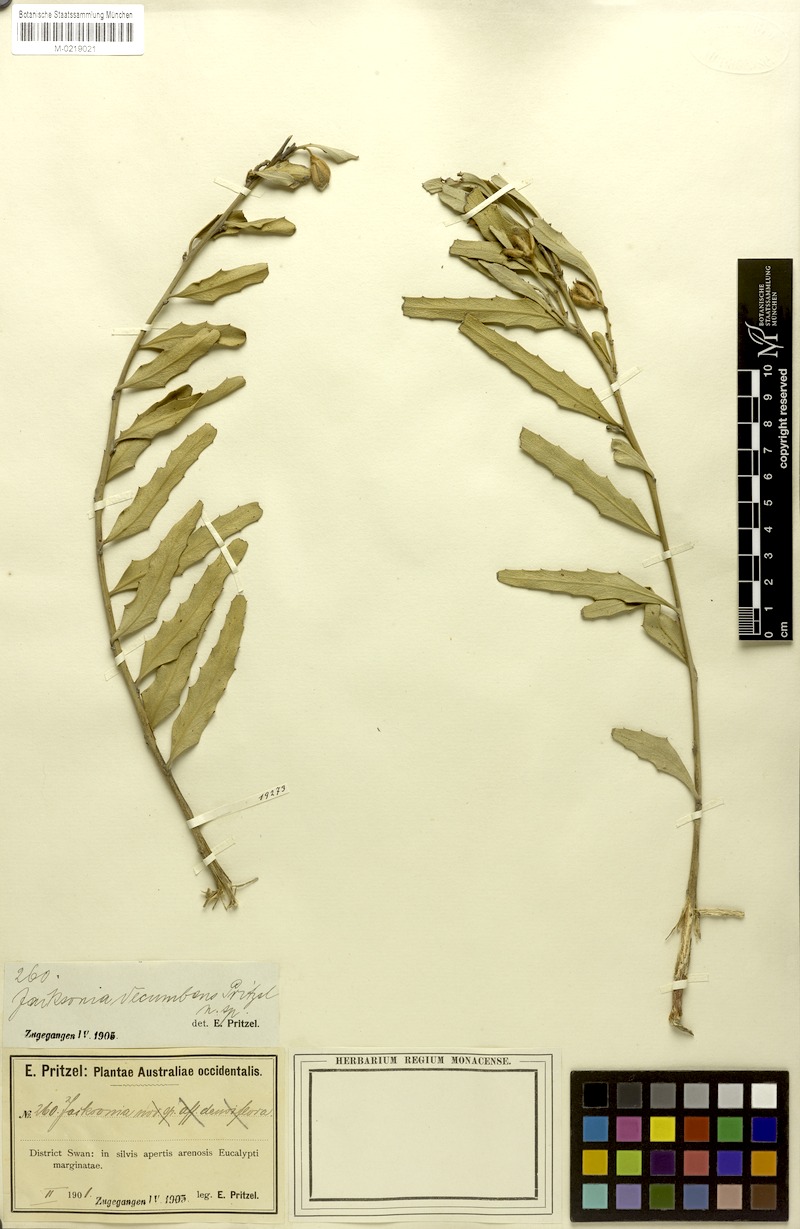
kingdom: Plantae
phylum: Tracheophyta
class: Magnoliopsida
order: Fabales
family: Fabaceae
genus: Jacksonia
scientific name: Jacksonia floribunda
